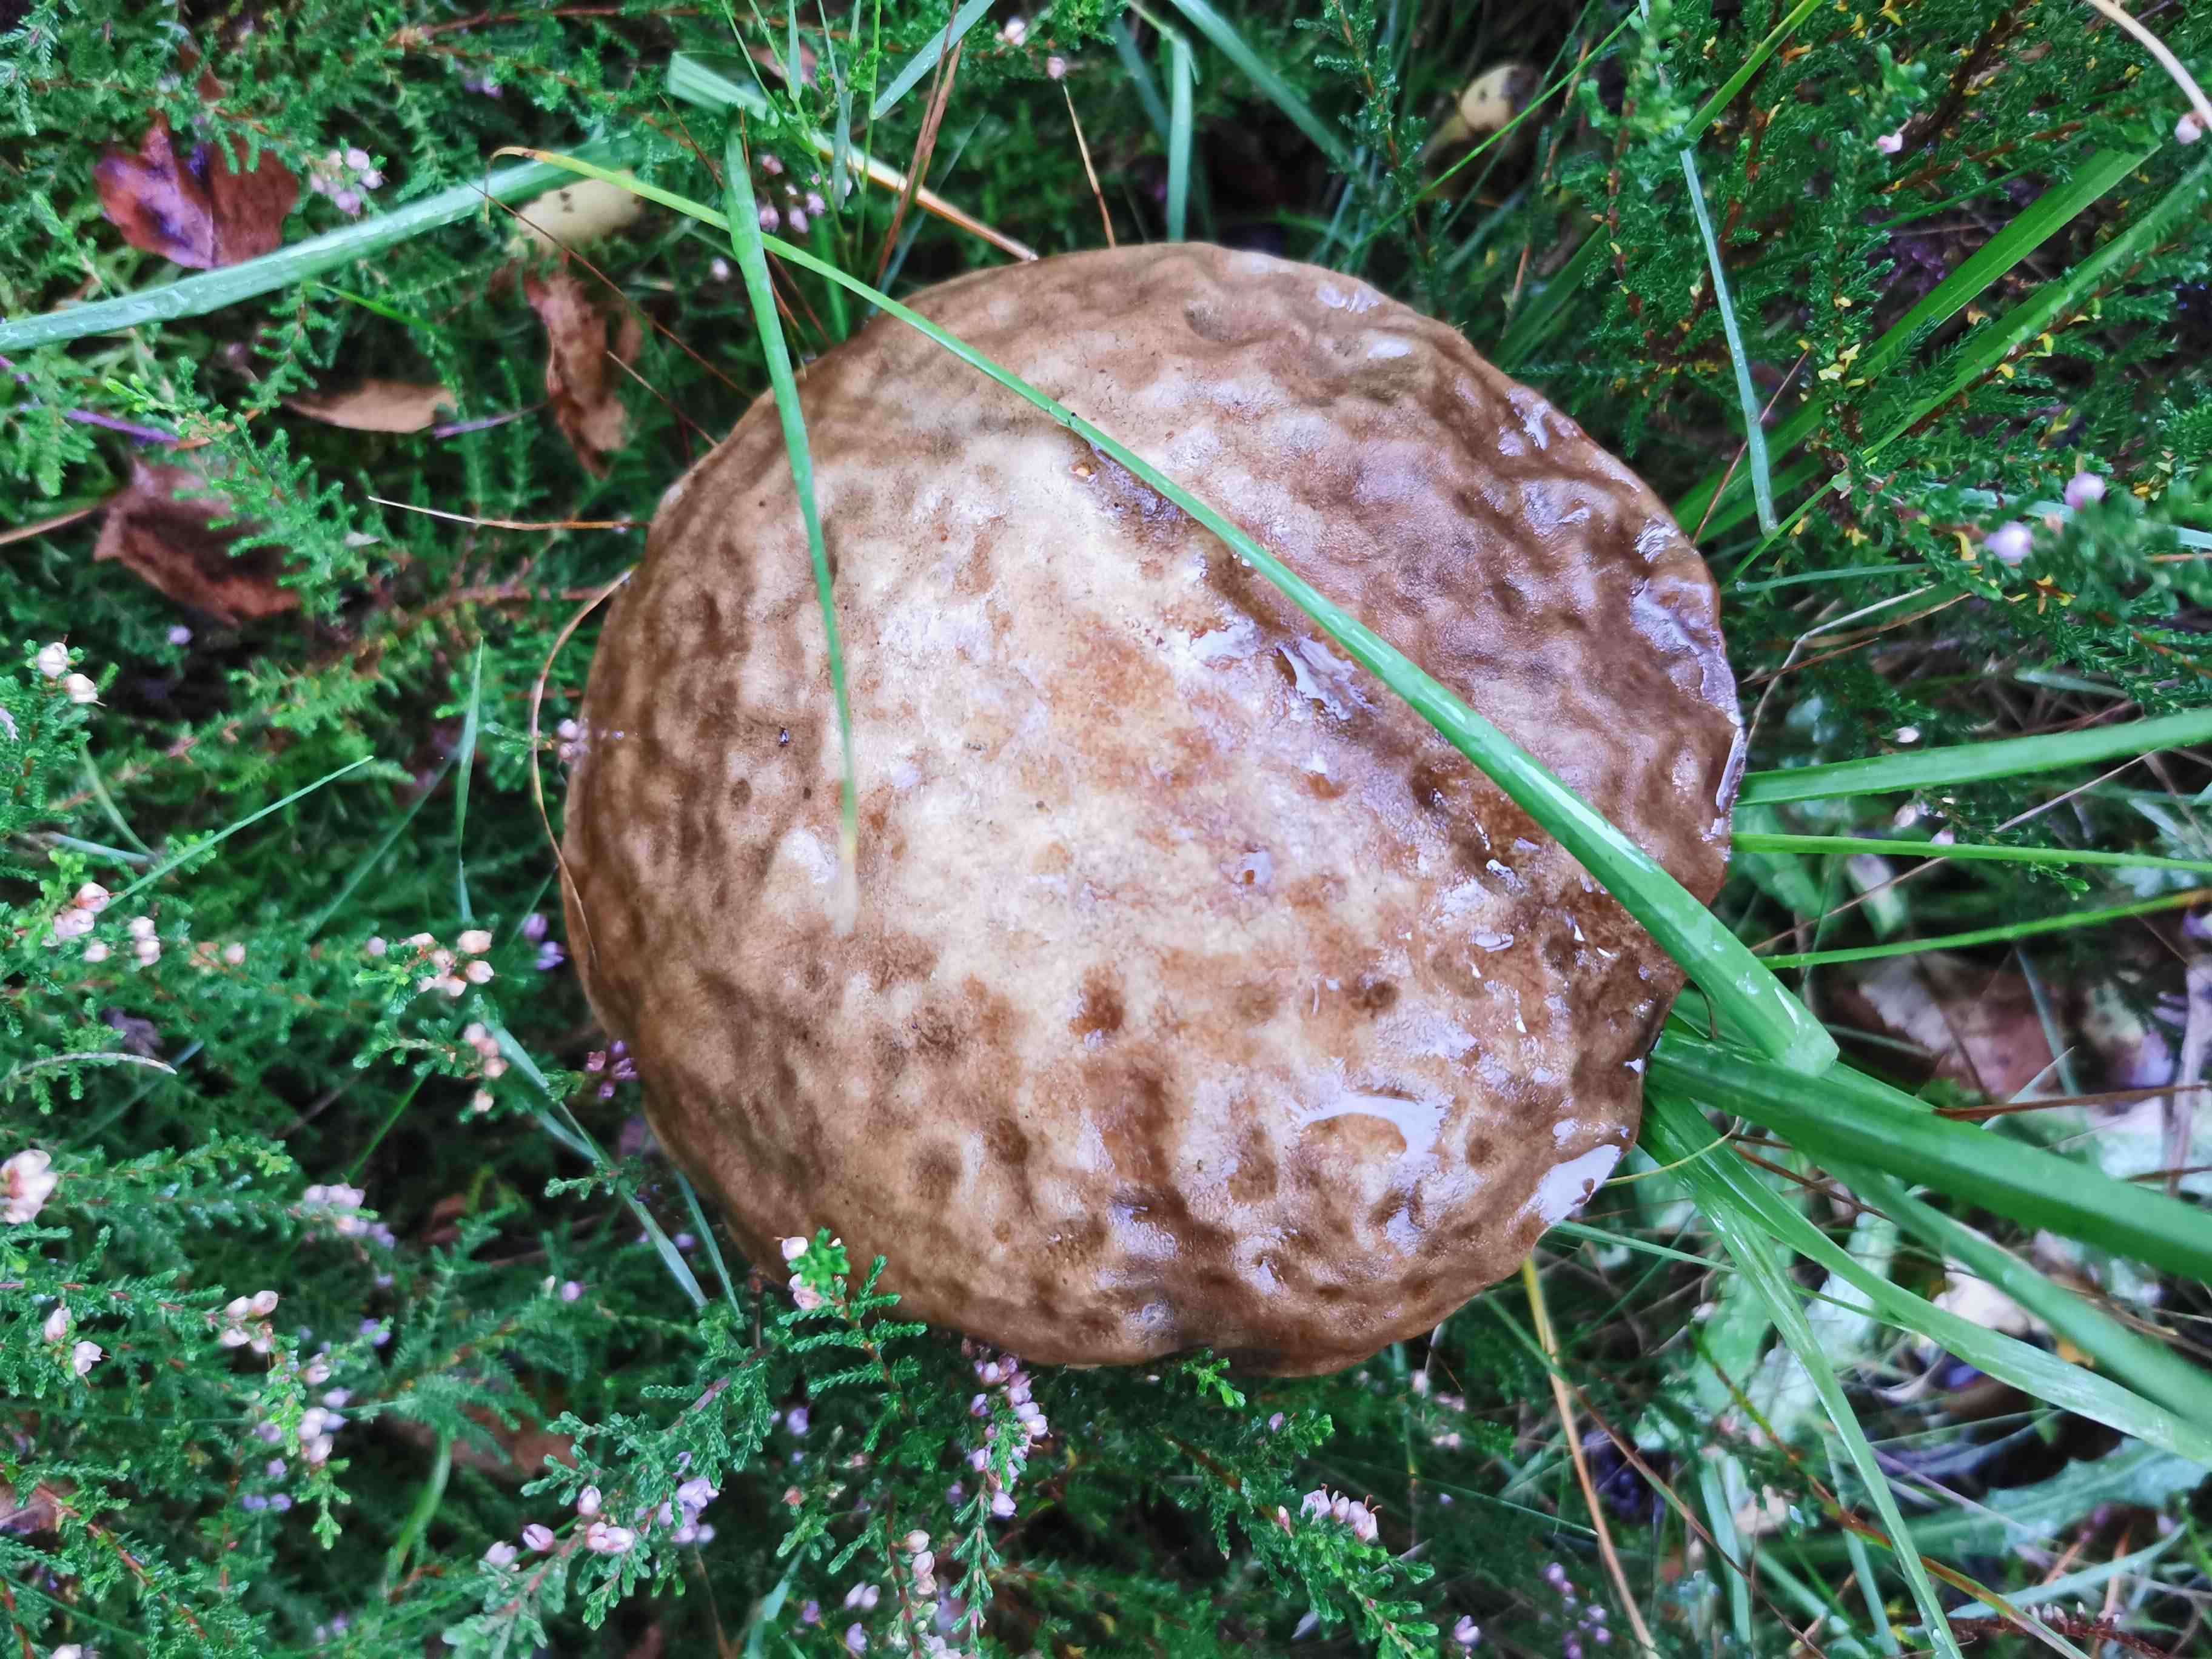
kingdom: Fungi
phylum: Basidiomycota
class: Agaricomycetes
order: Boletales
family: Boletaceae
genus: Leccinum
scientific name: Leccinum scabrum
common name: brun skælrørhat
